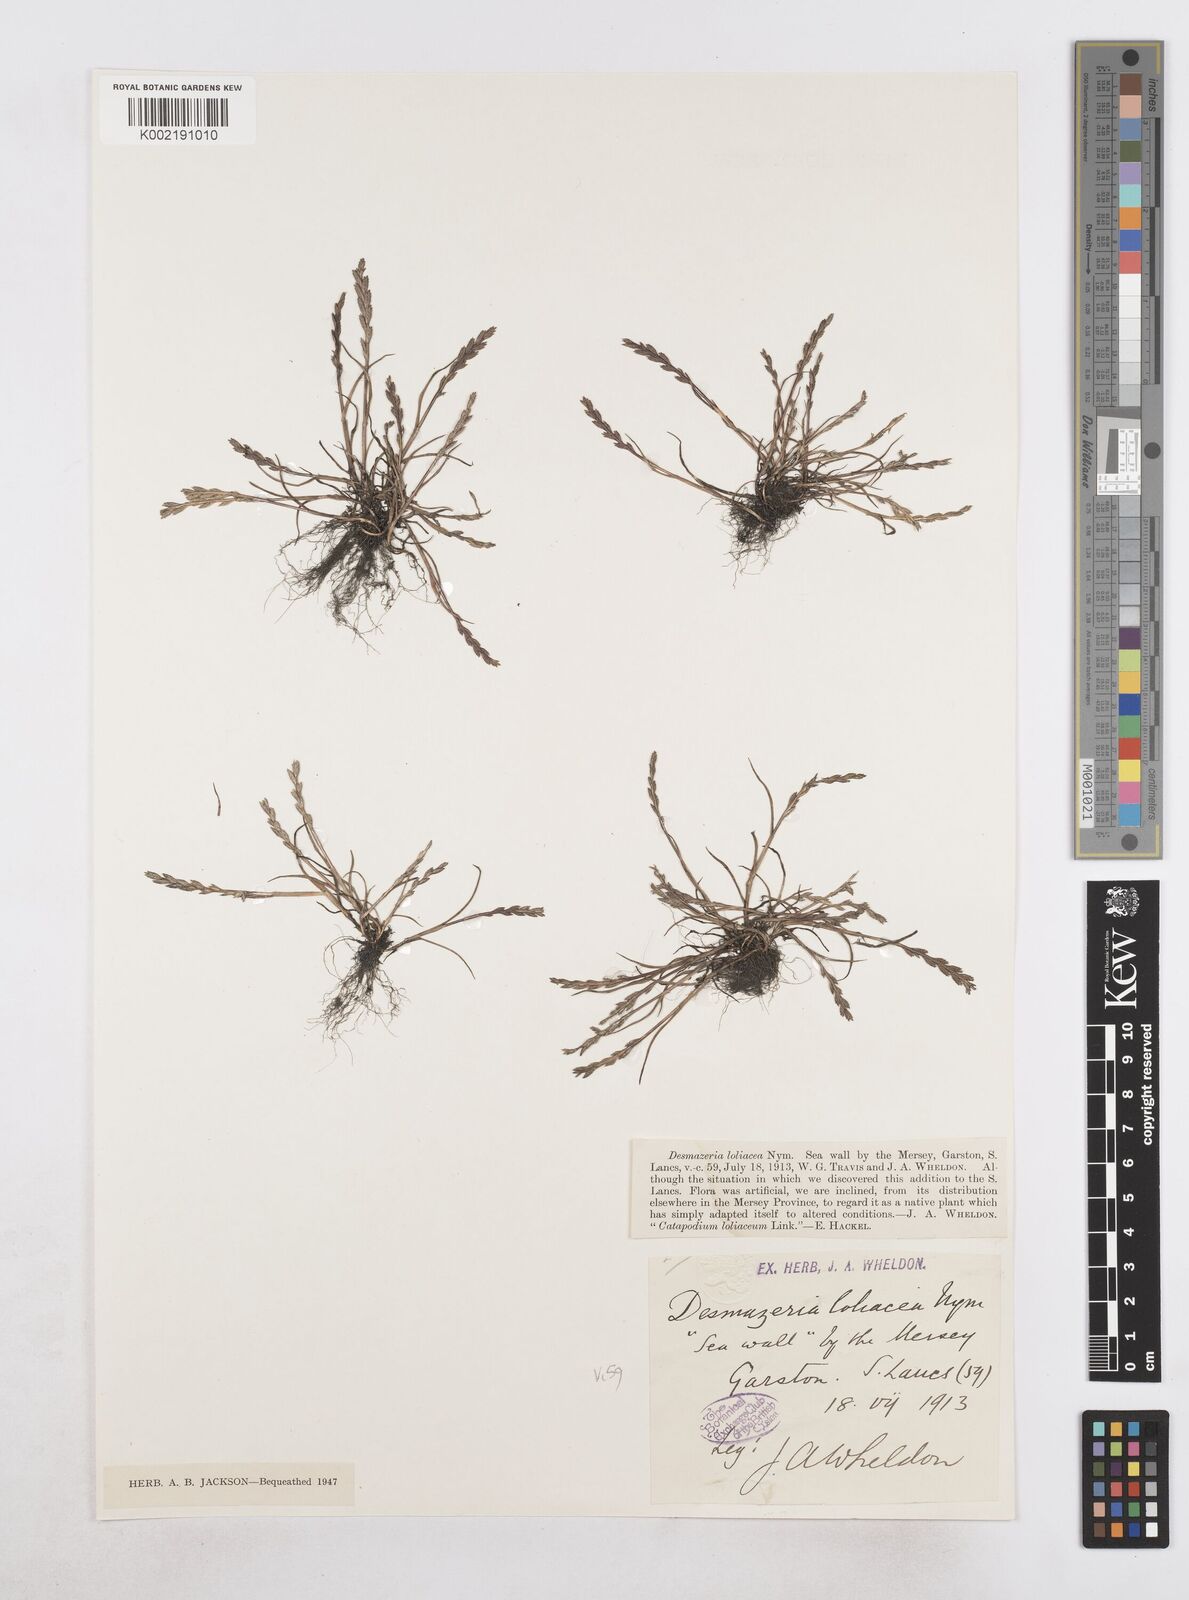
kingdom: Plantae
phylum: Tracheophyta
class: Liliopsida
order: Poales
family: Poaceae
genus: Catapodium
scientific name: Catapodium marinum
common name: Sea fern-grass
